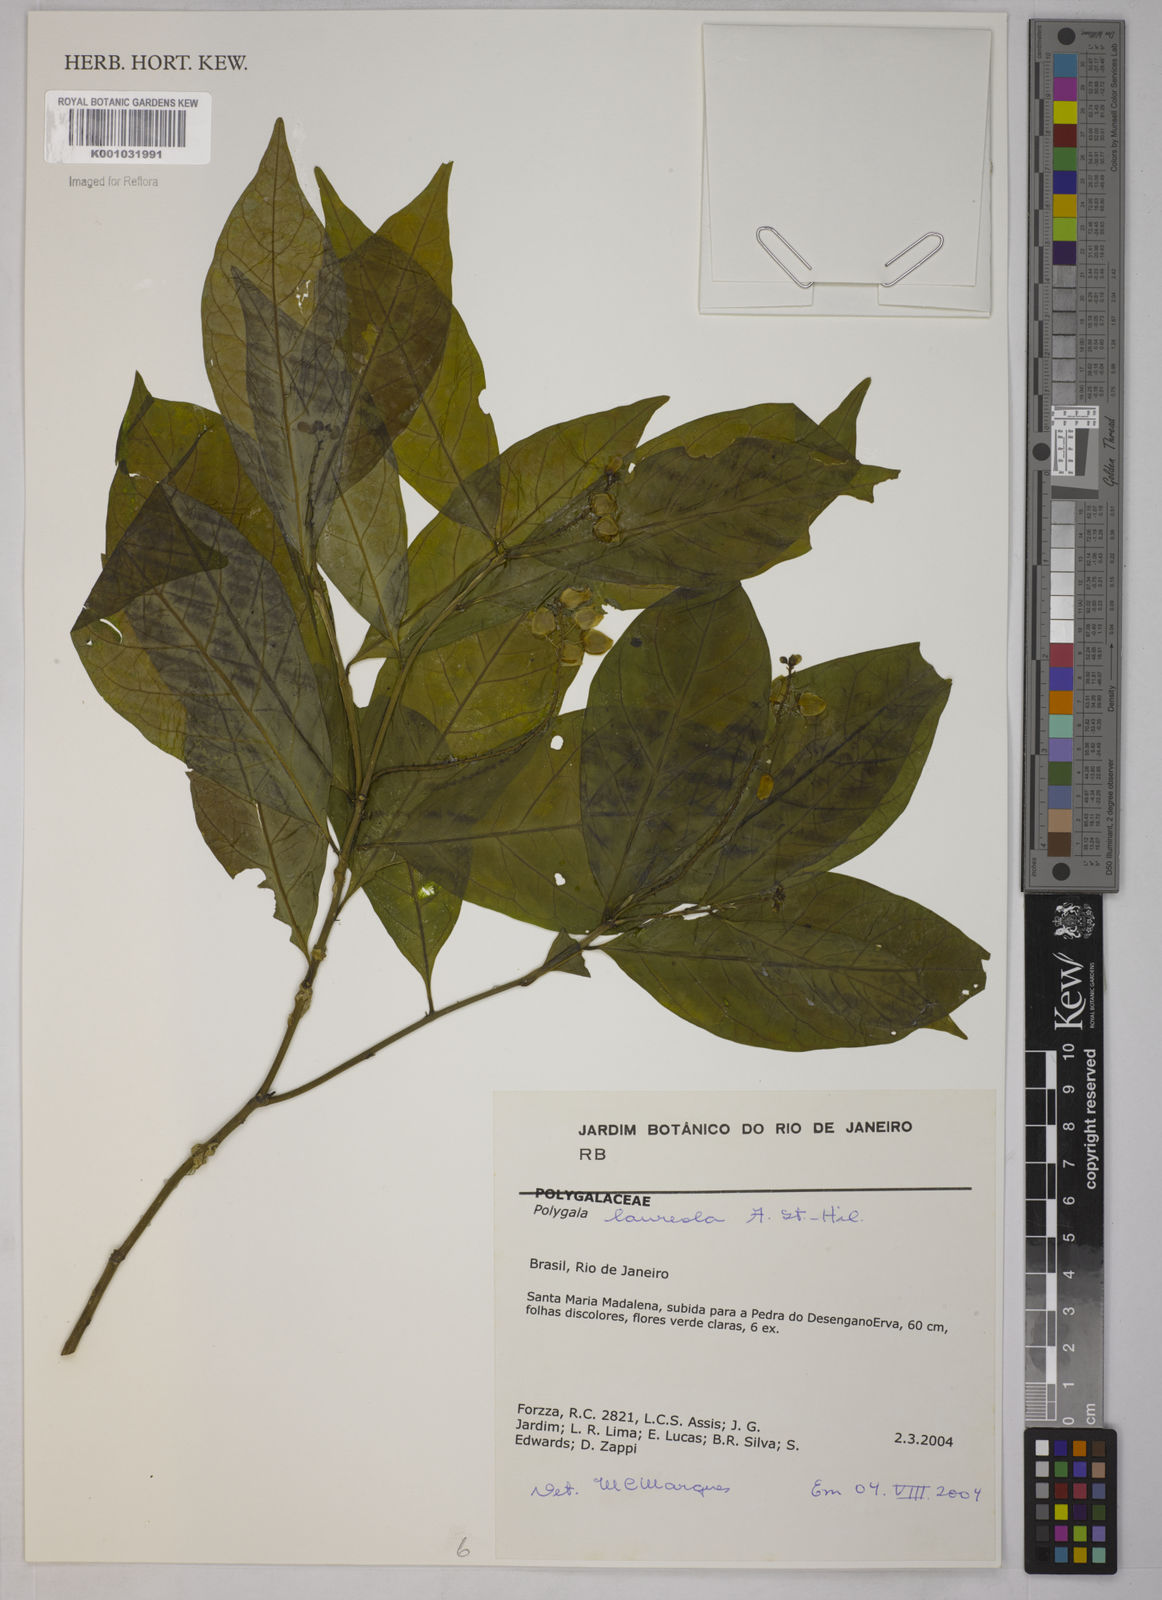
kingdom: Plantae
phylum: Tracheophyta
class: Magnoliopsida
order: Fabales
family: Polygalaceae
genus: Caamembeca
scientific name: Caamembeca salicifolia
